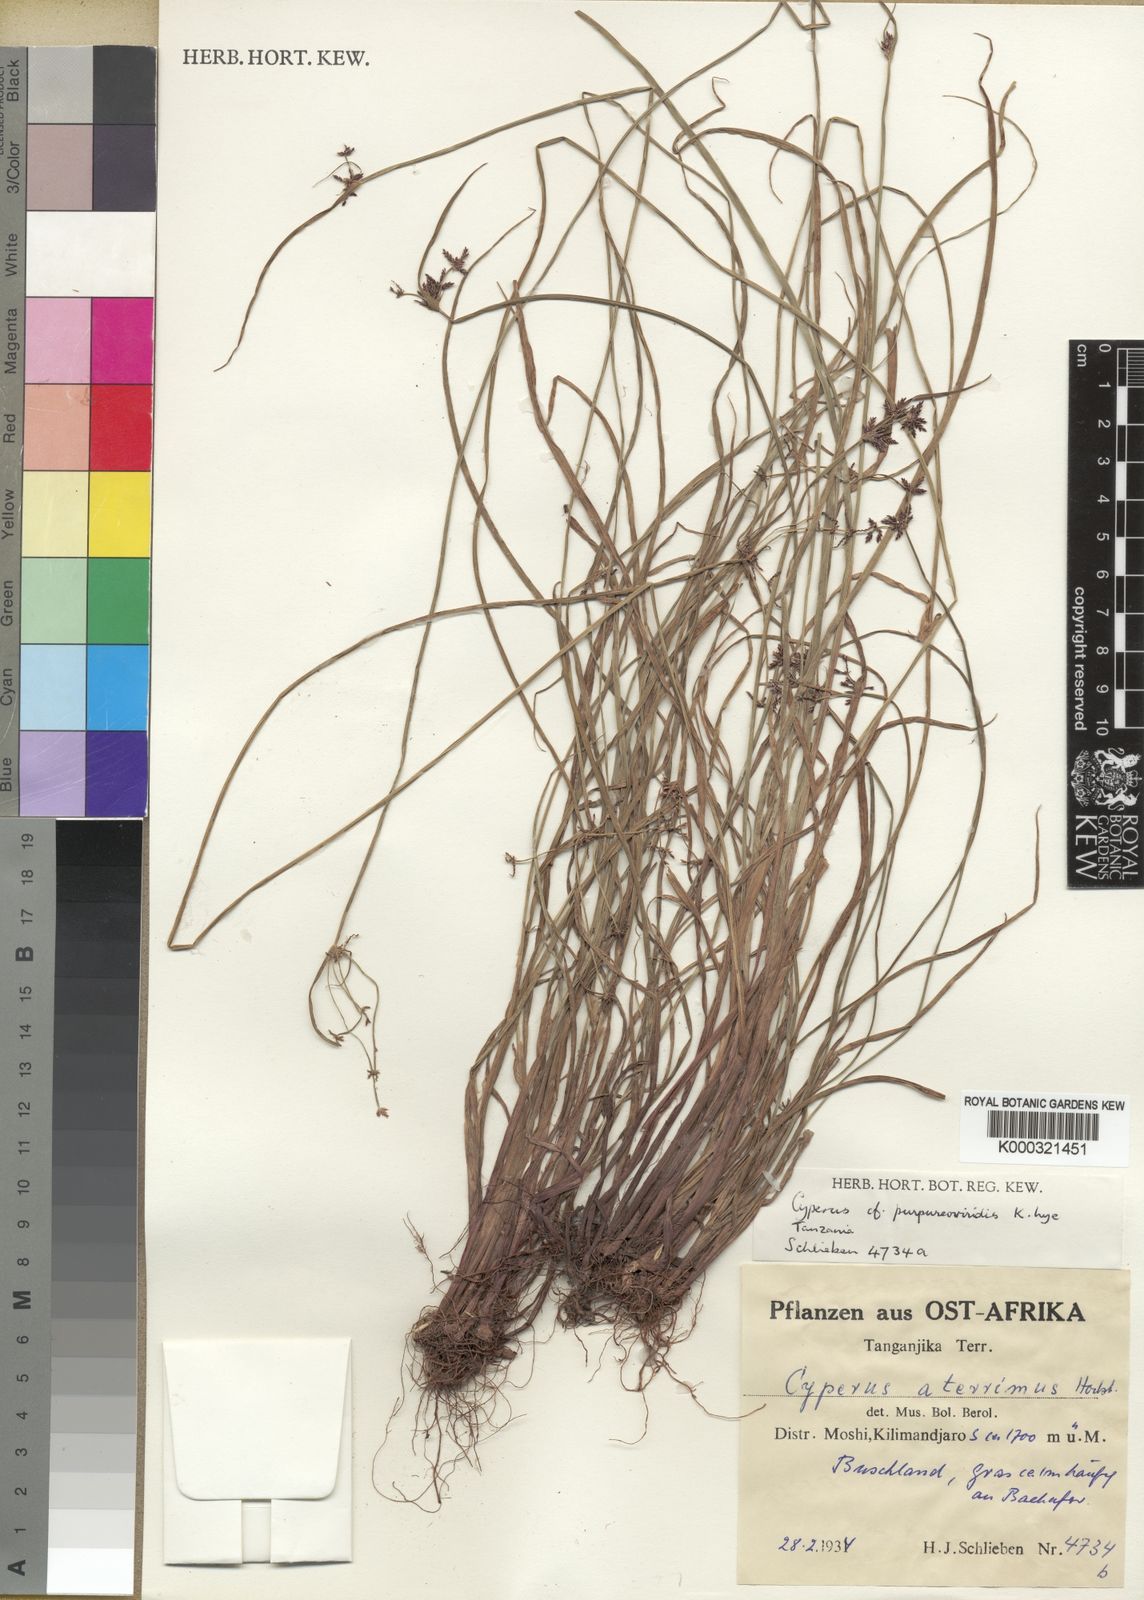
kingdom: Plantae
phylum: Tracheophyta
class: Liliopsida
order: Poales
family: Cyperaceae
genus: Cyperus
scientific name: Cyperus purpureoviridis
